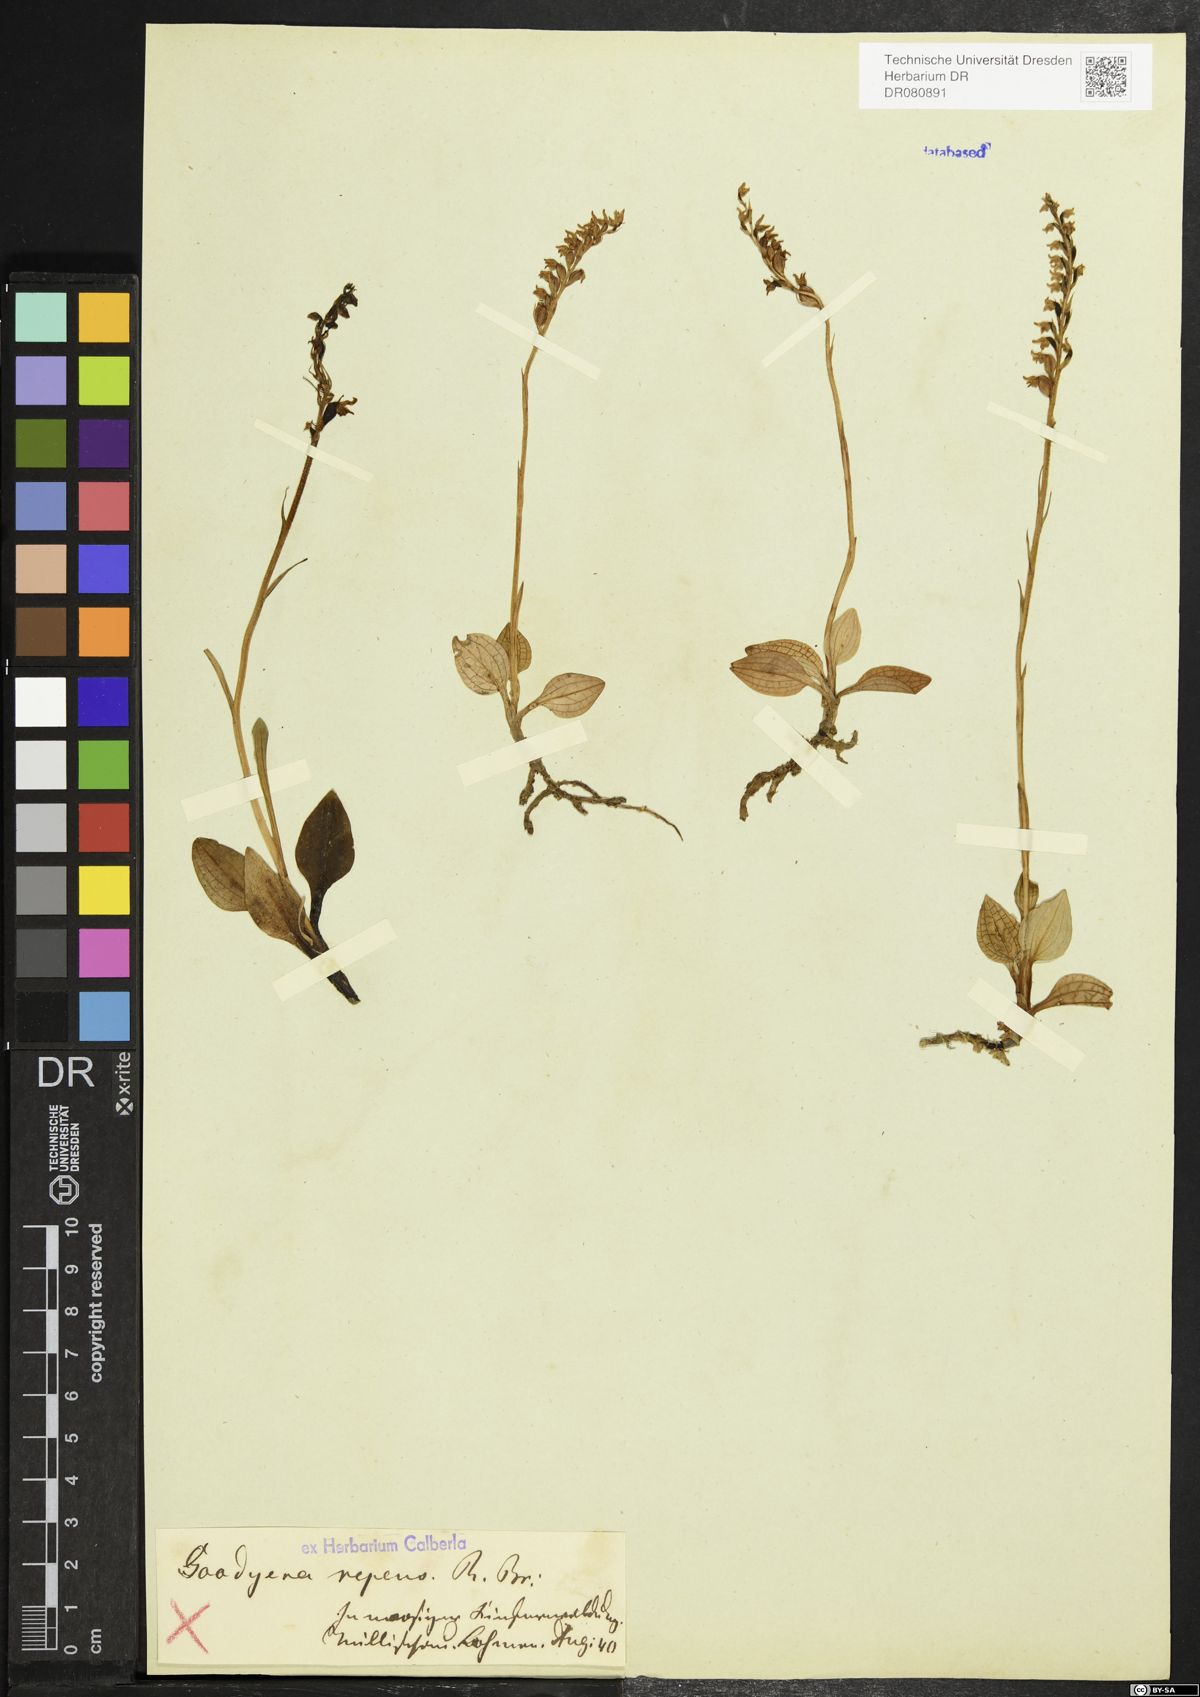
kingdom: Plantae
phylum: Tracheophyta
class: Liliopsida
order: Asparagales
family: Orchidaceae
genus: Goodyera
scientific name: Goodyera repens
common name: Creeping lady's-tresses
